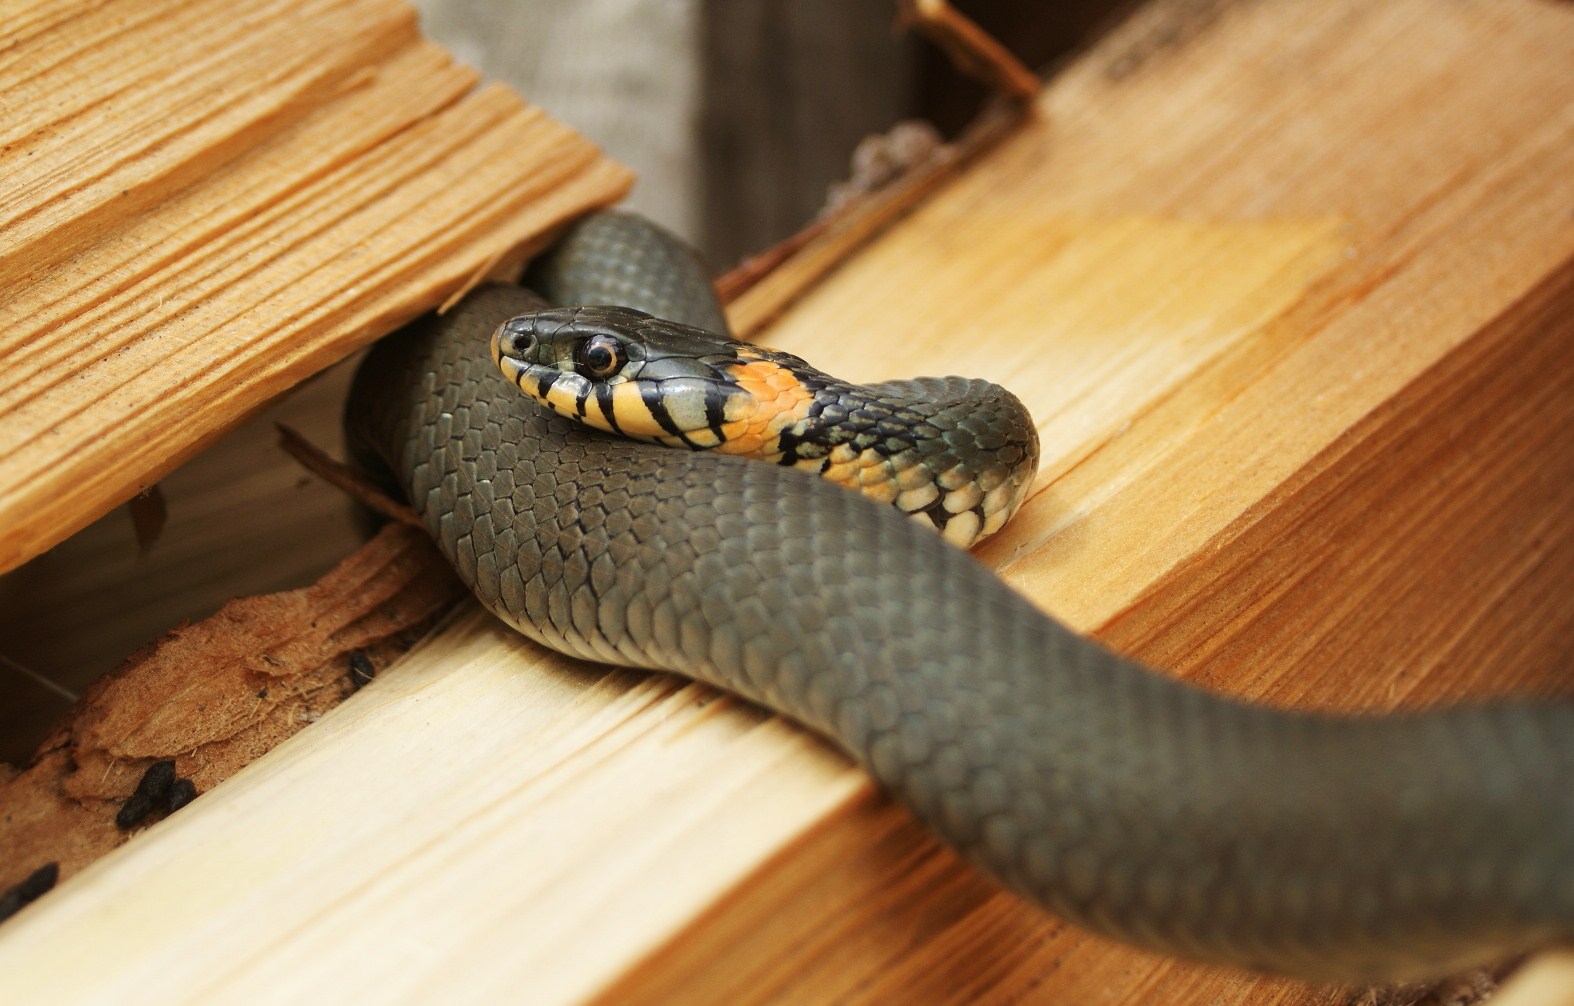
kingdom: Animalia
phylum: Chordata
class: Squamata
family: Colubridae
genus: Natrix
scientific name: Natrix natrix
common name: Grass snake
